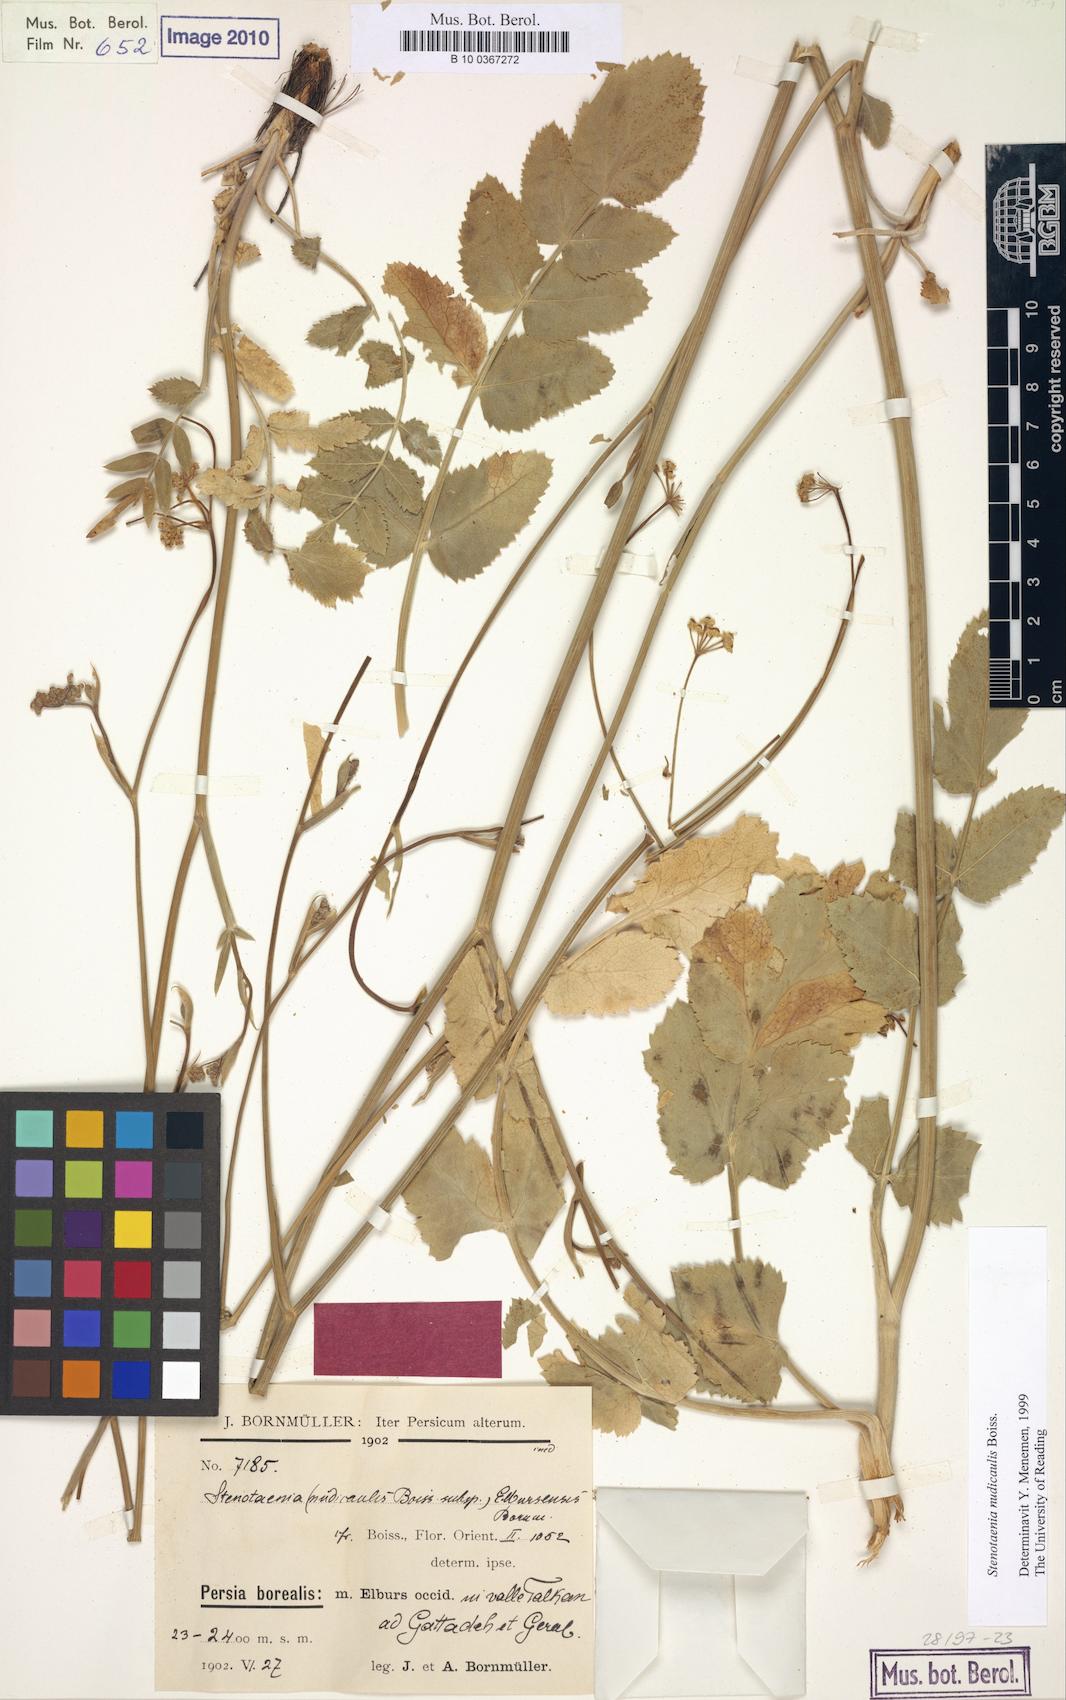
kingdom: Plantae
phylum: Tracheophyta
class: Magnoliopsida
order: Apiales
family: Apiaceae
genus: Stenotaenia
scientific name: Stenotaenia nudicaulis
